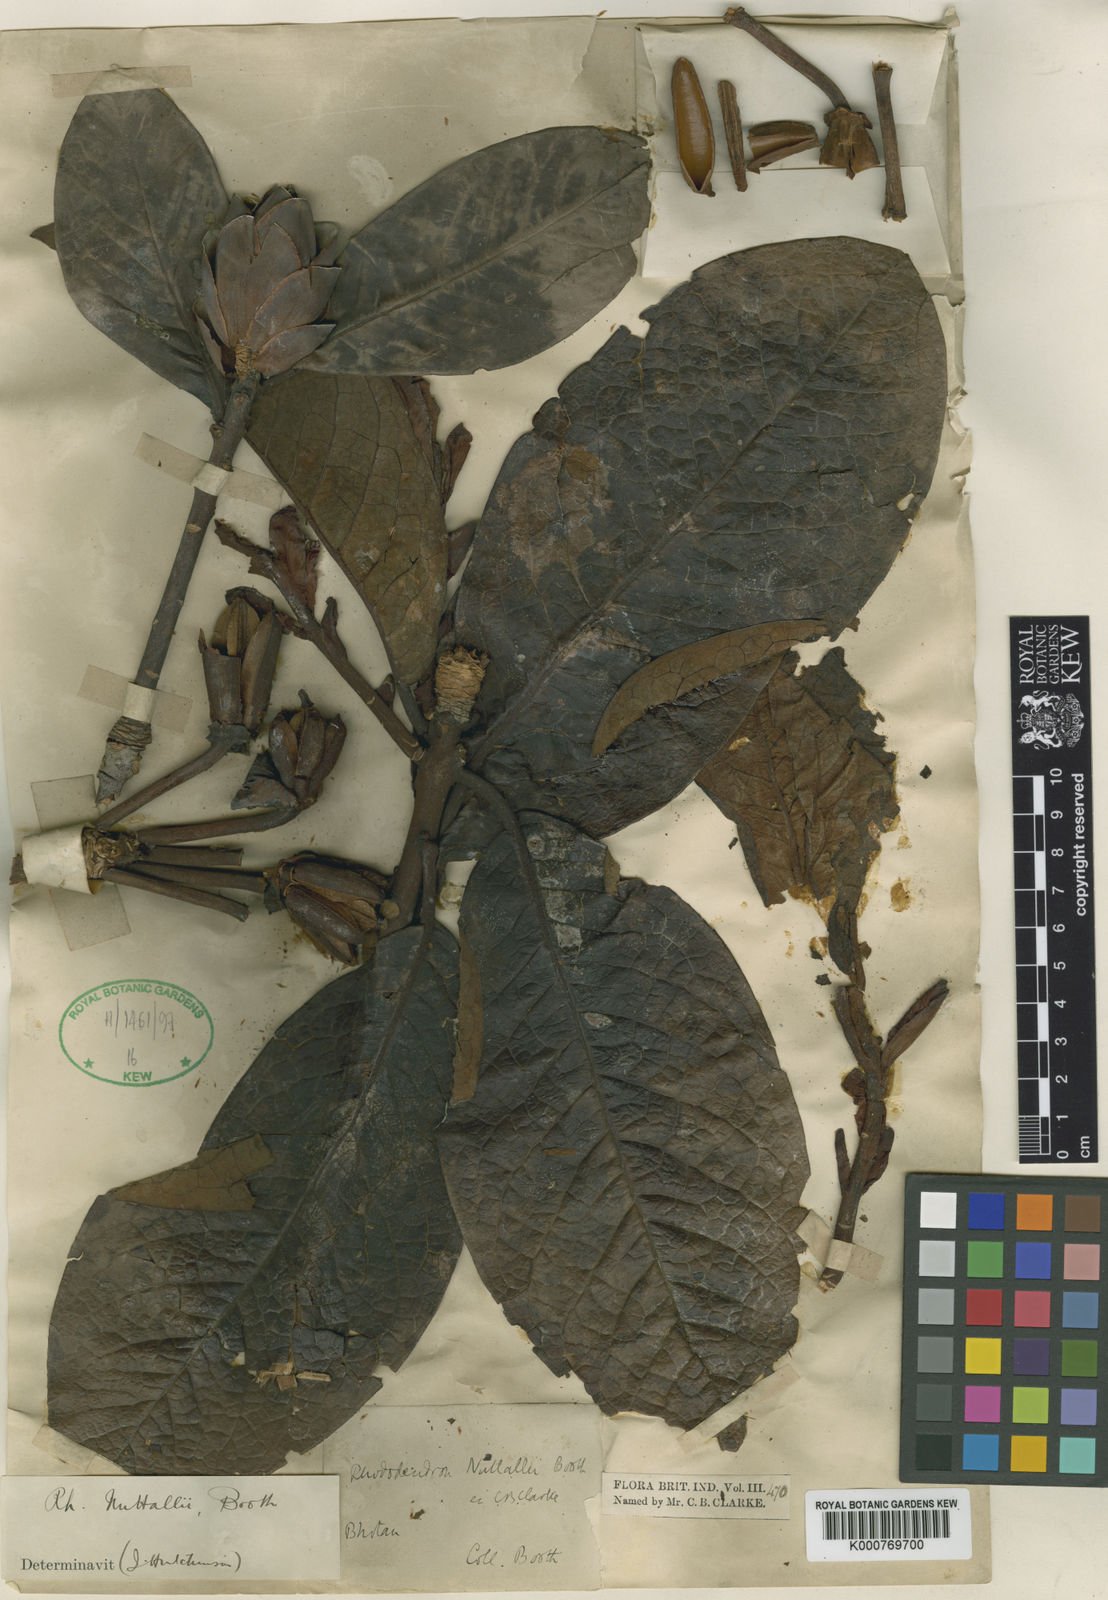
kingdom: Plantae
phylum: Tracheophyta
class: Magnoliopsida
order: Ericales
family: Ericaceae
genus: Rhododendron
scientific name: Rhododendron nuttallii
